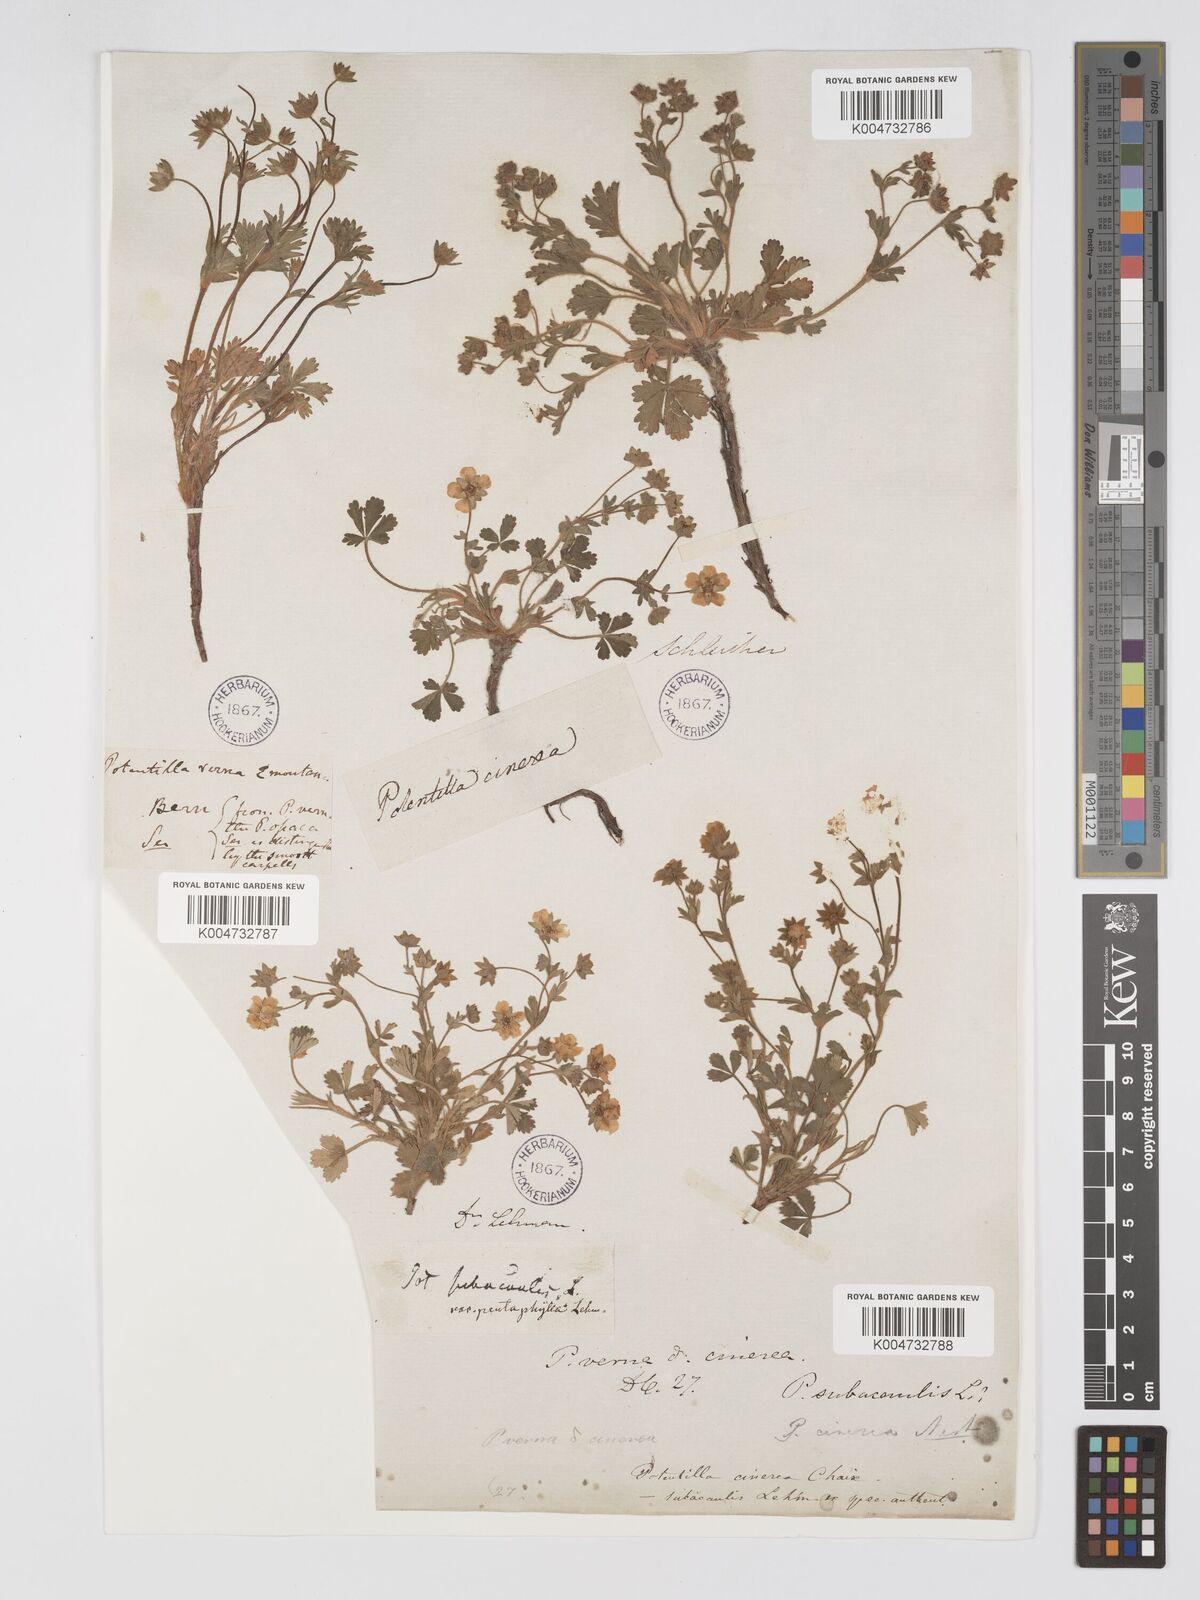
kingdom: Plantae
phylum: Tracheophyta
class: Magnoliopsida
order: Rosales
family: Rosaceae
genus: Potentilla
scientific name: Potentilla
